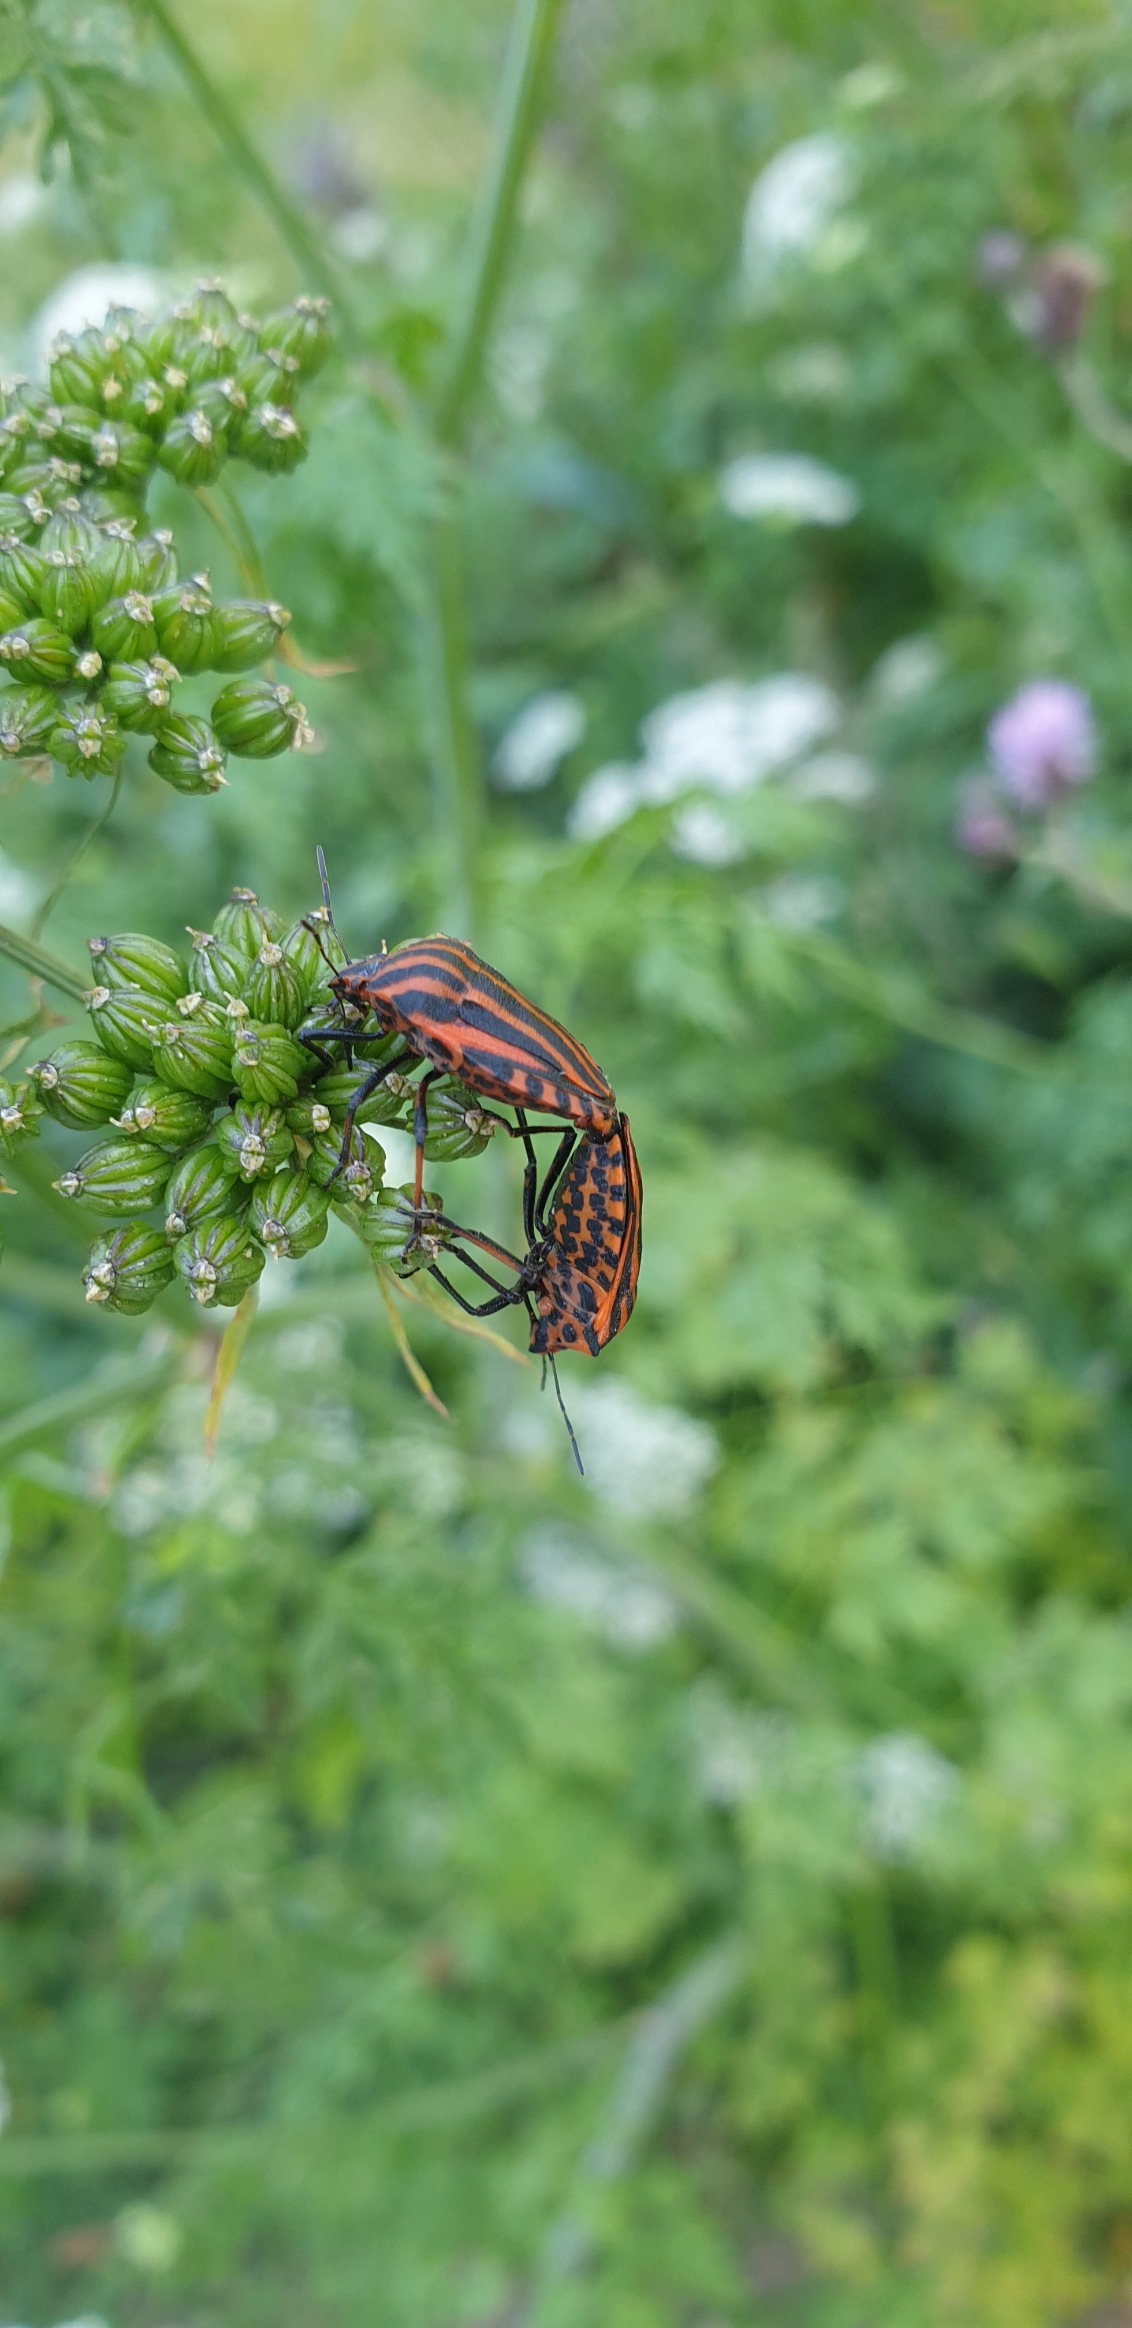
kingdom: Animalia
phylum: Arthropoda
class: Insecta
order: Hemiptera
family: Pentatomidae
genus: Graphosoma
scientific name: Graphosoma italicum
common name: Stribetæge
